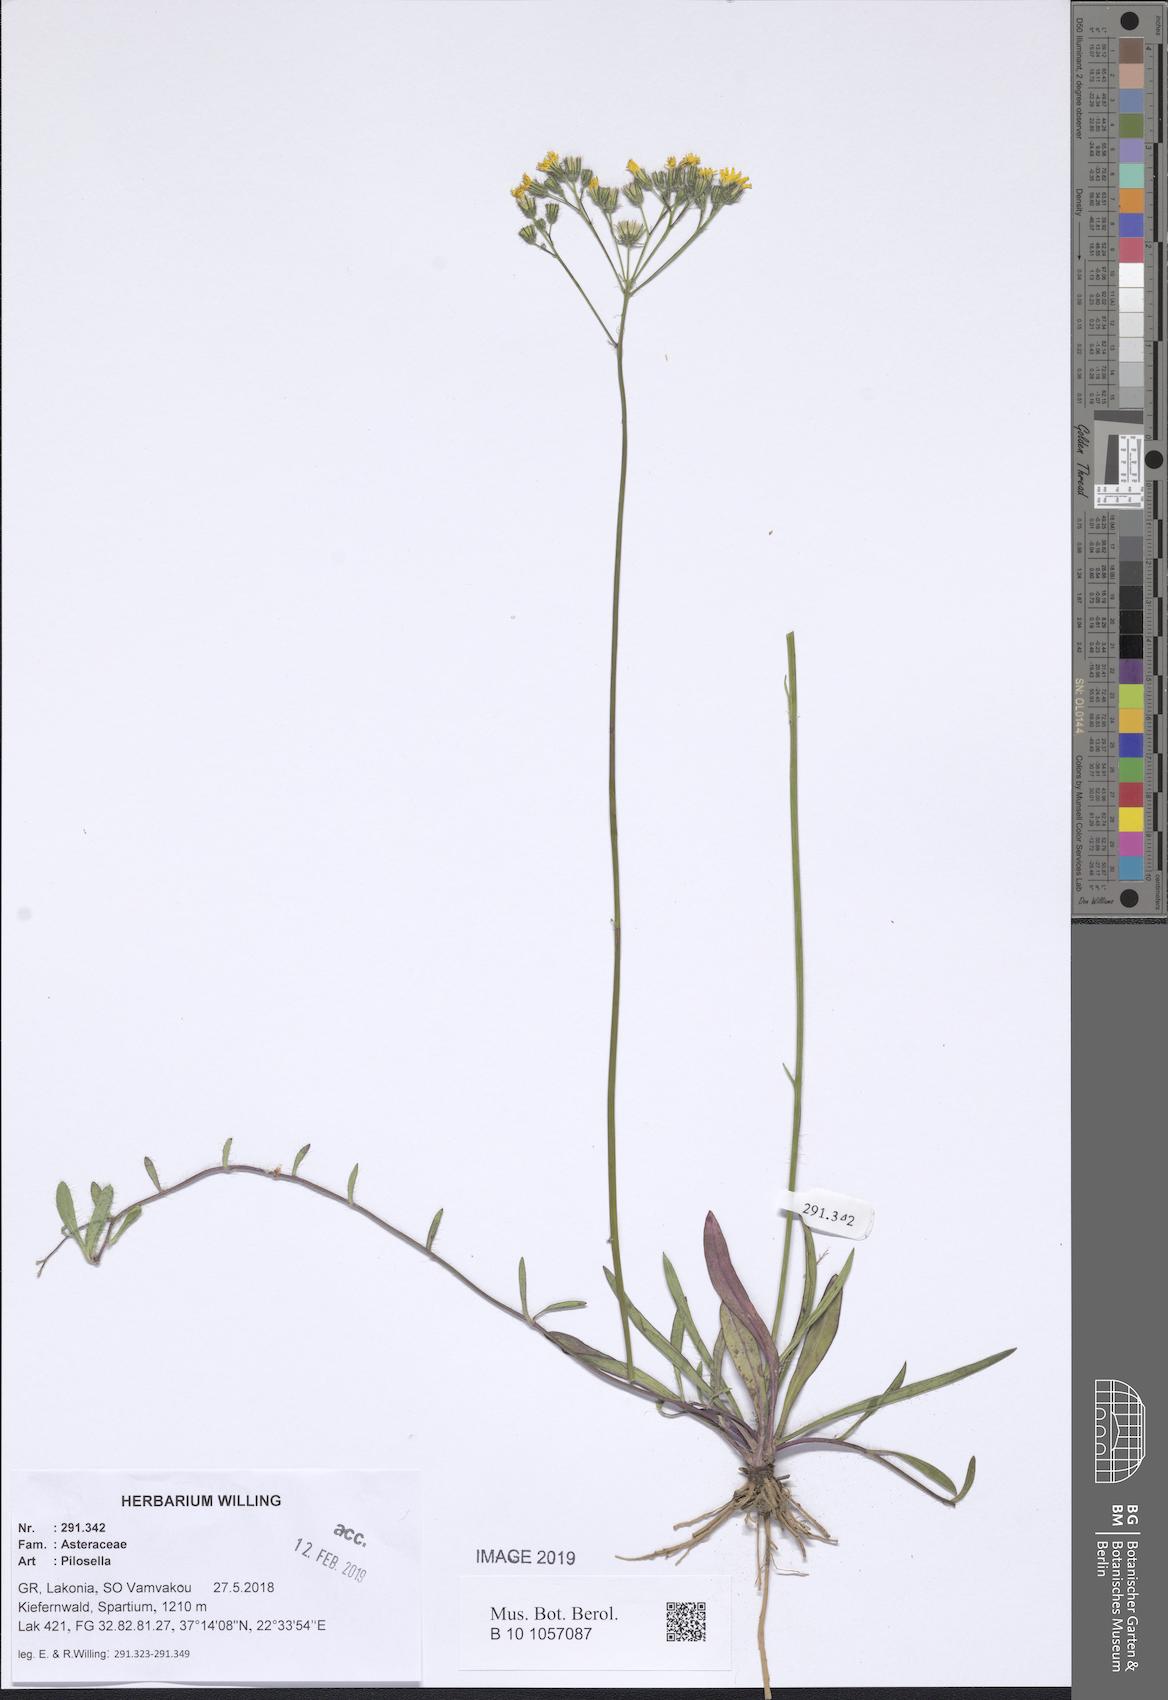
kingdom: Plantae
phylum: Tracheophyta
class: Magnoliopsida
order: Asterales
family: Asteraceae
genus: Pilosella
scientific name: Pilosella
